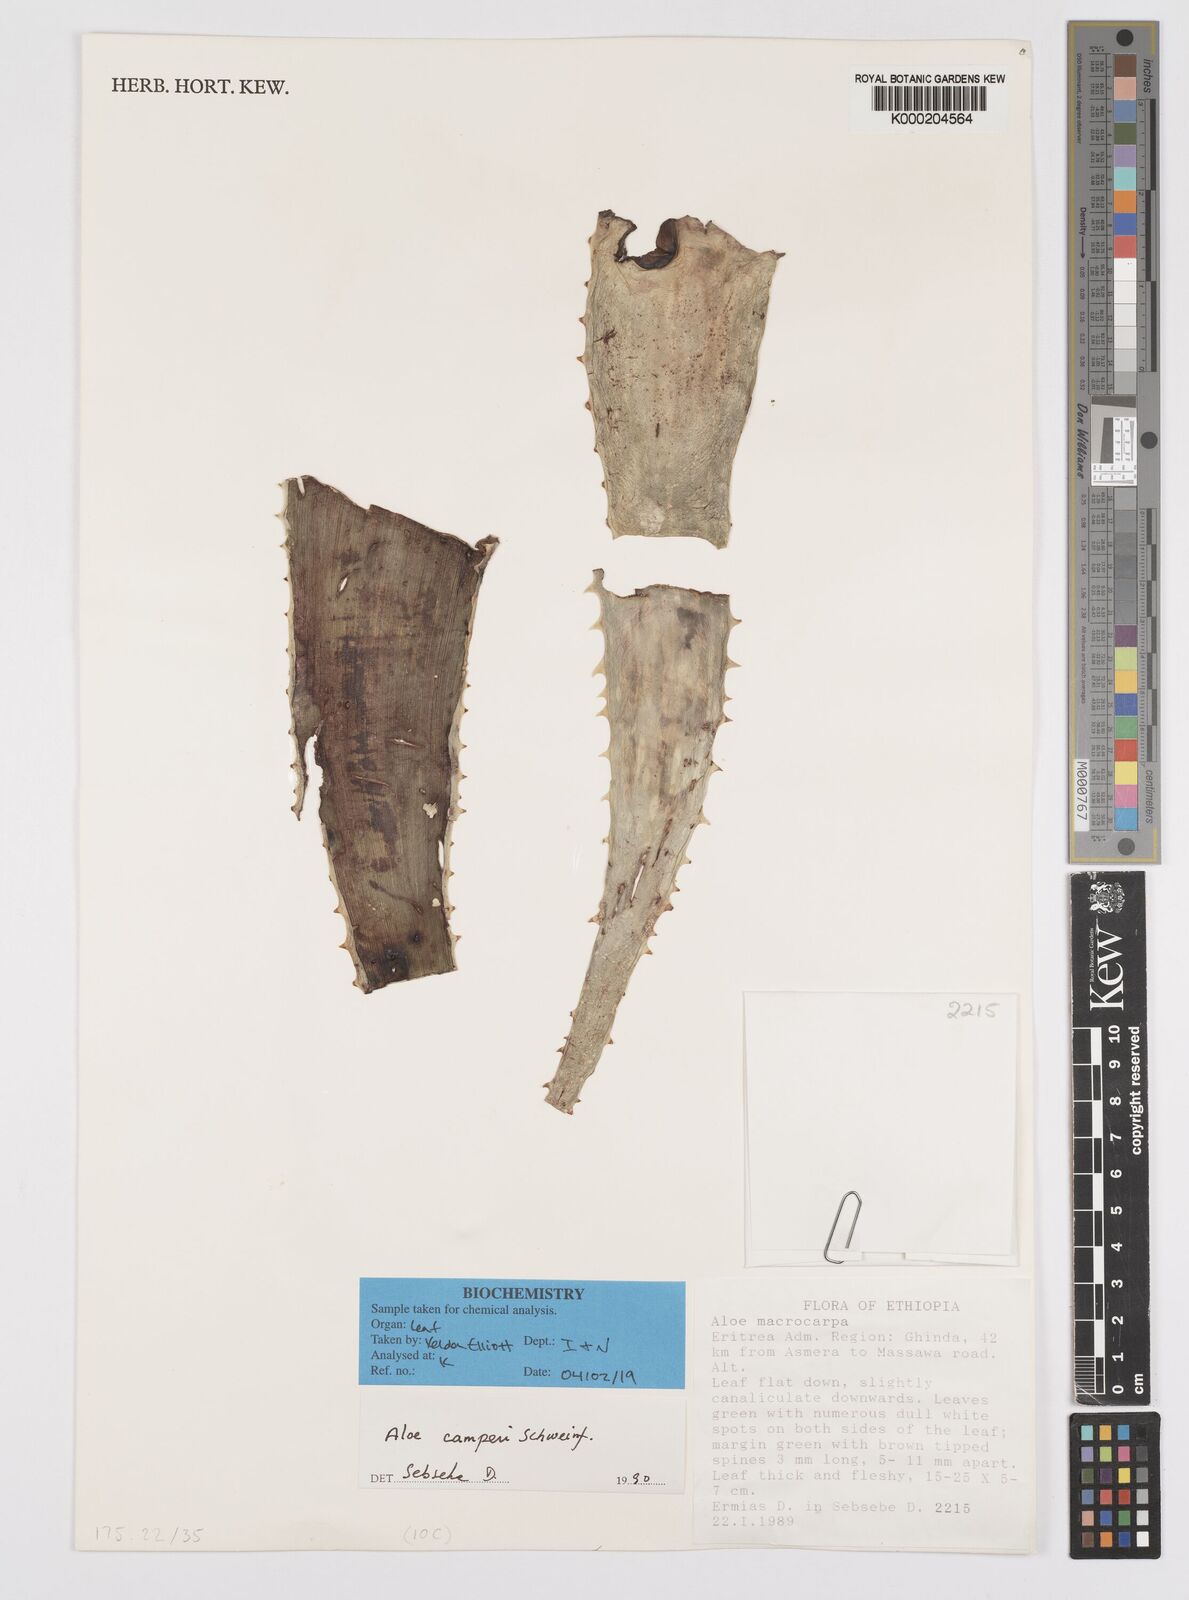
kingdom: Plantae
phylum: Tracheophyta
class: Liliopsida
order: Asparagales
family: Asphodelaceae
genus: Aloe
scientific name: Aloe camperi
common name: Camper's aloe
